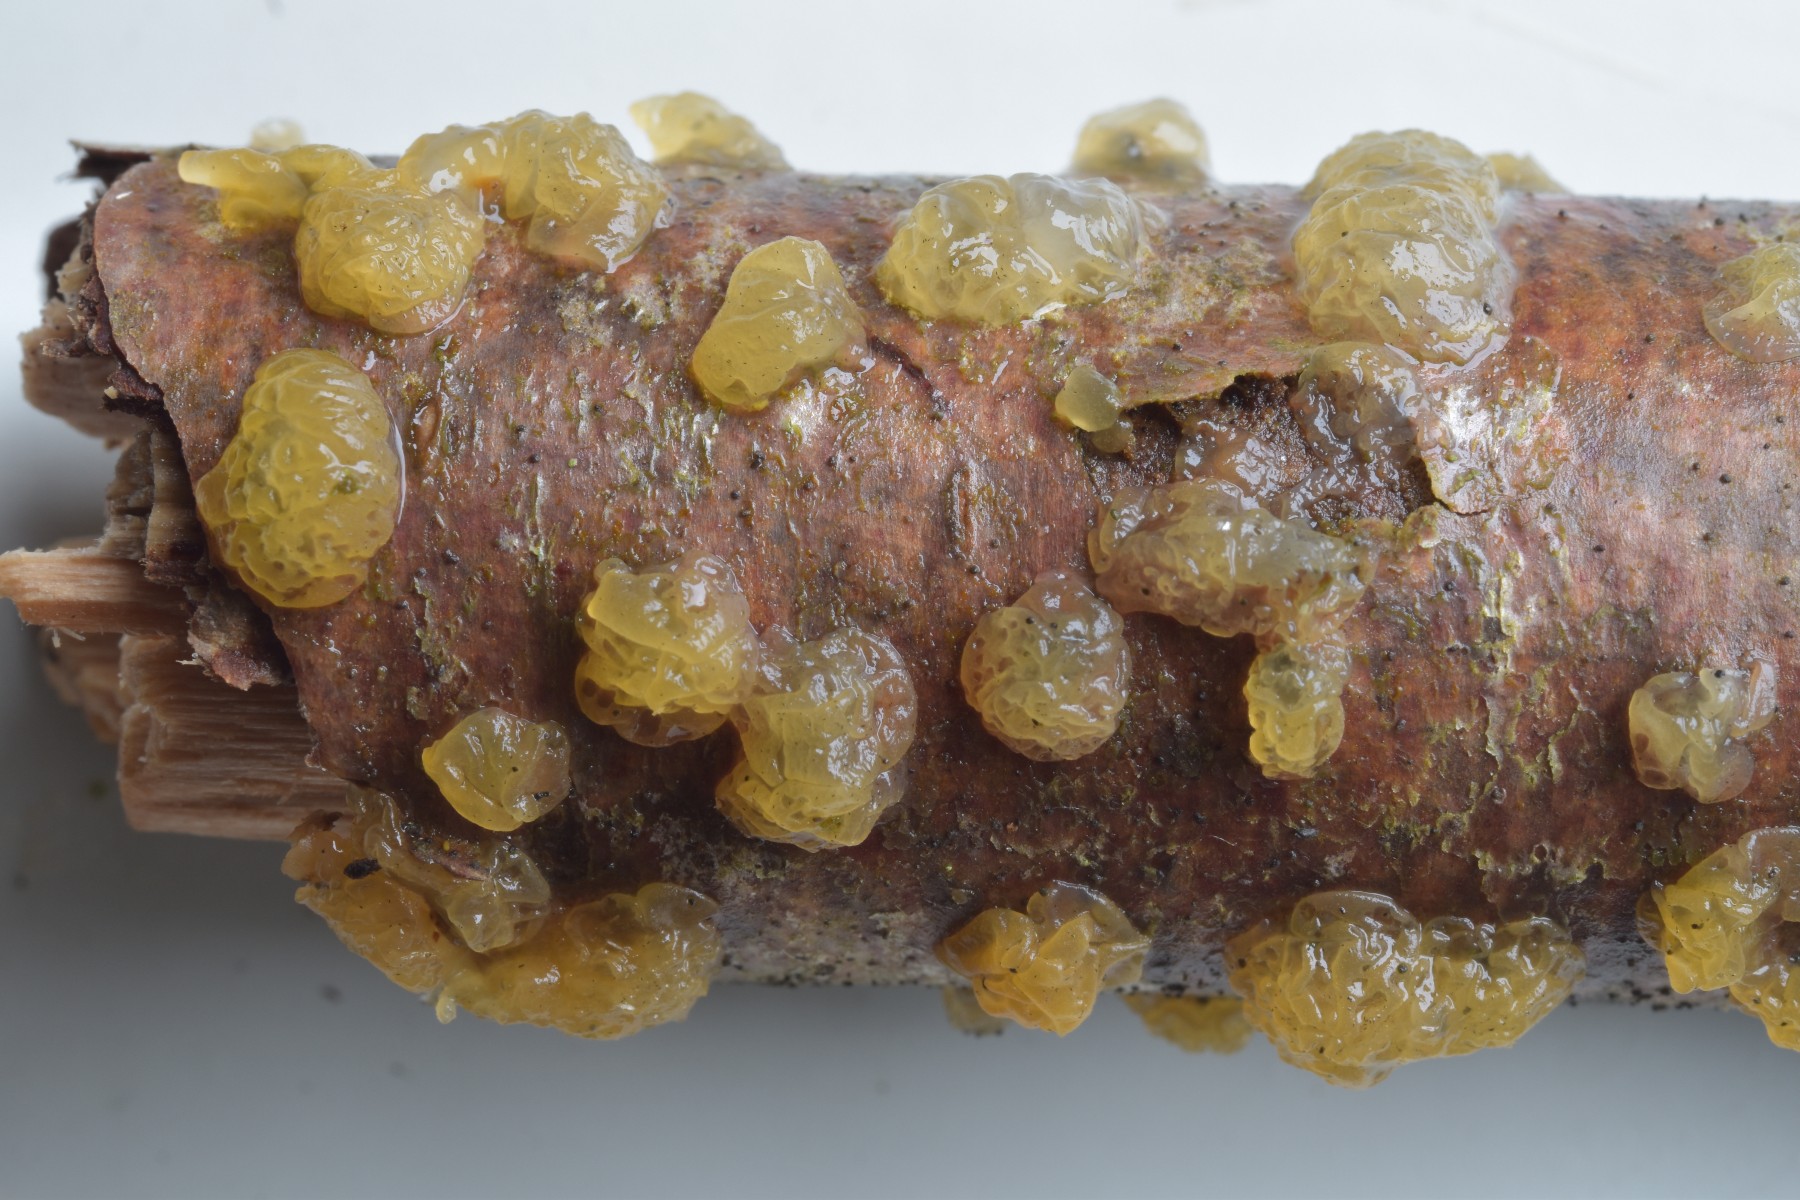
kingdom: Fungi
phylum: Basidiomycota
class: Dacrymycetes
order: Dacrymycetales
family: Dacrymycetaceae
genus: Dacrymyces
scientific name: Dacrymyces lacrymalis
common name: rynket tåresvamp
